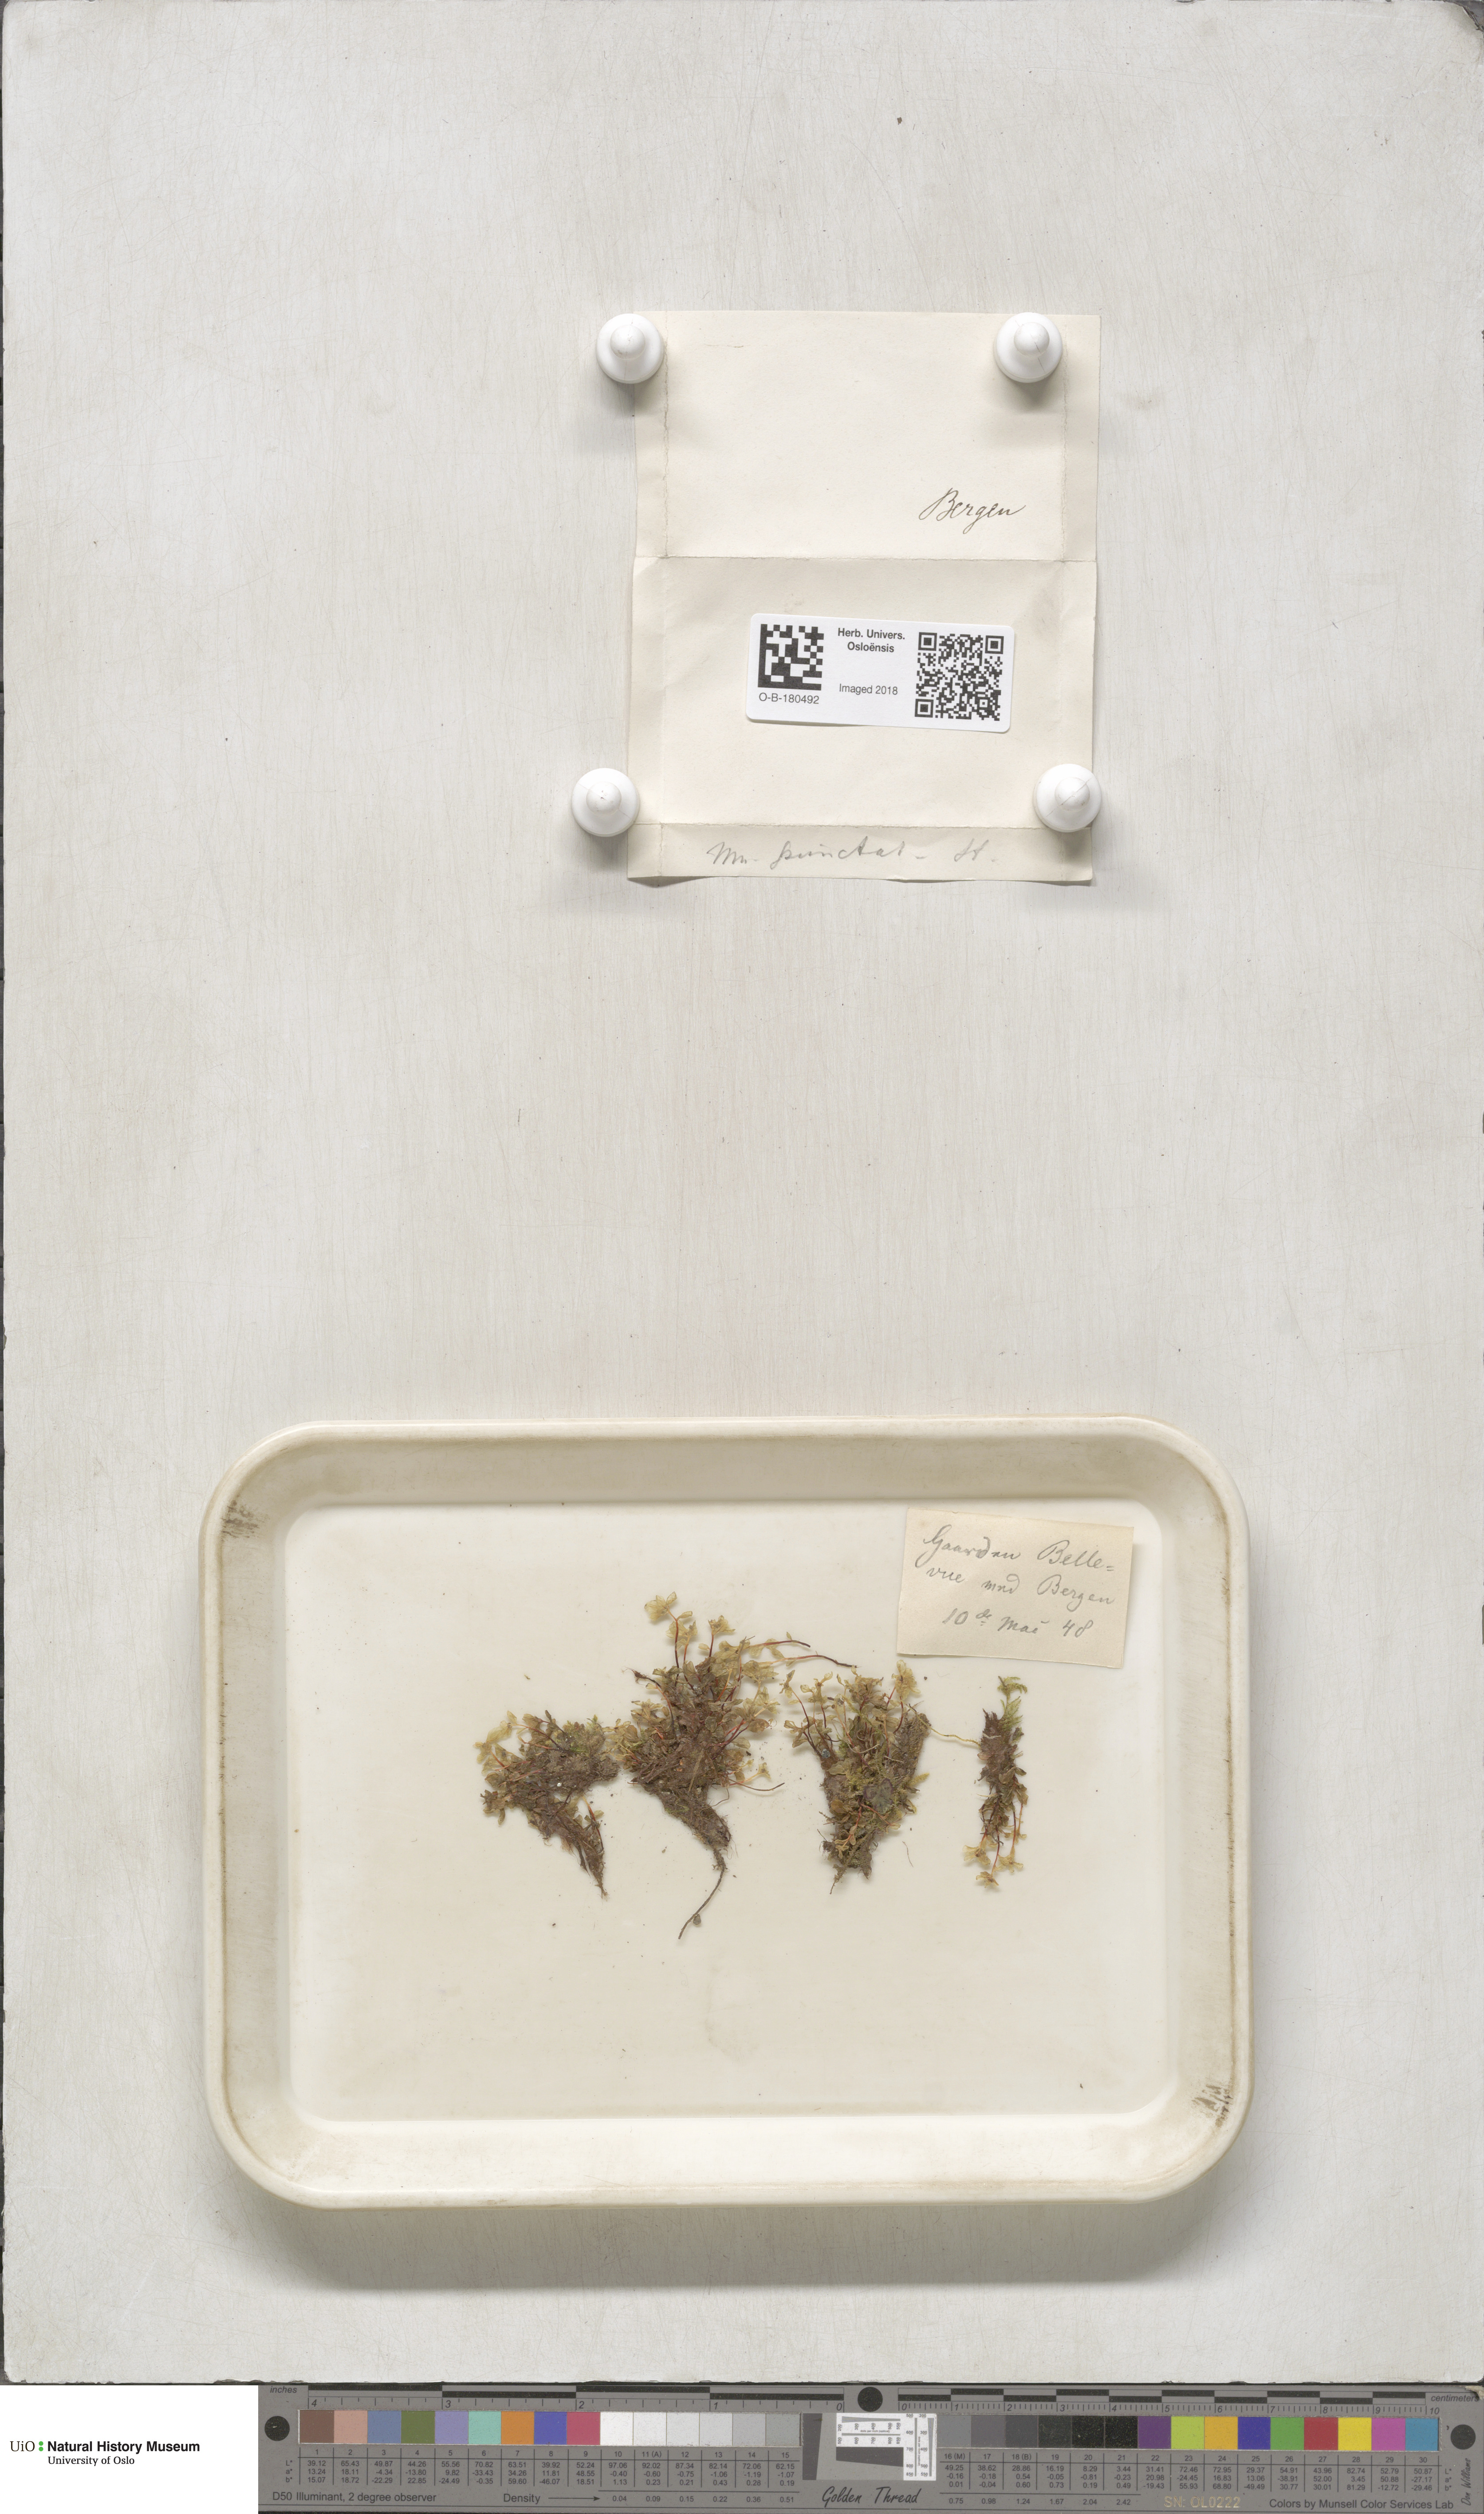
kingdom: Plantae
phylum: Bryophyta
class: Bryopsida
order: Bryales
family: Mniaceae
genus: Rhizomnium
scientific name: Rhizomnium punctatum
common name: Dotted leafy moss
